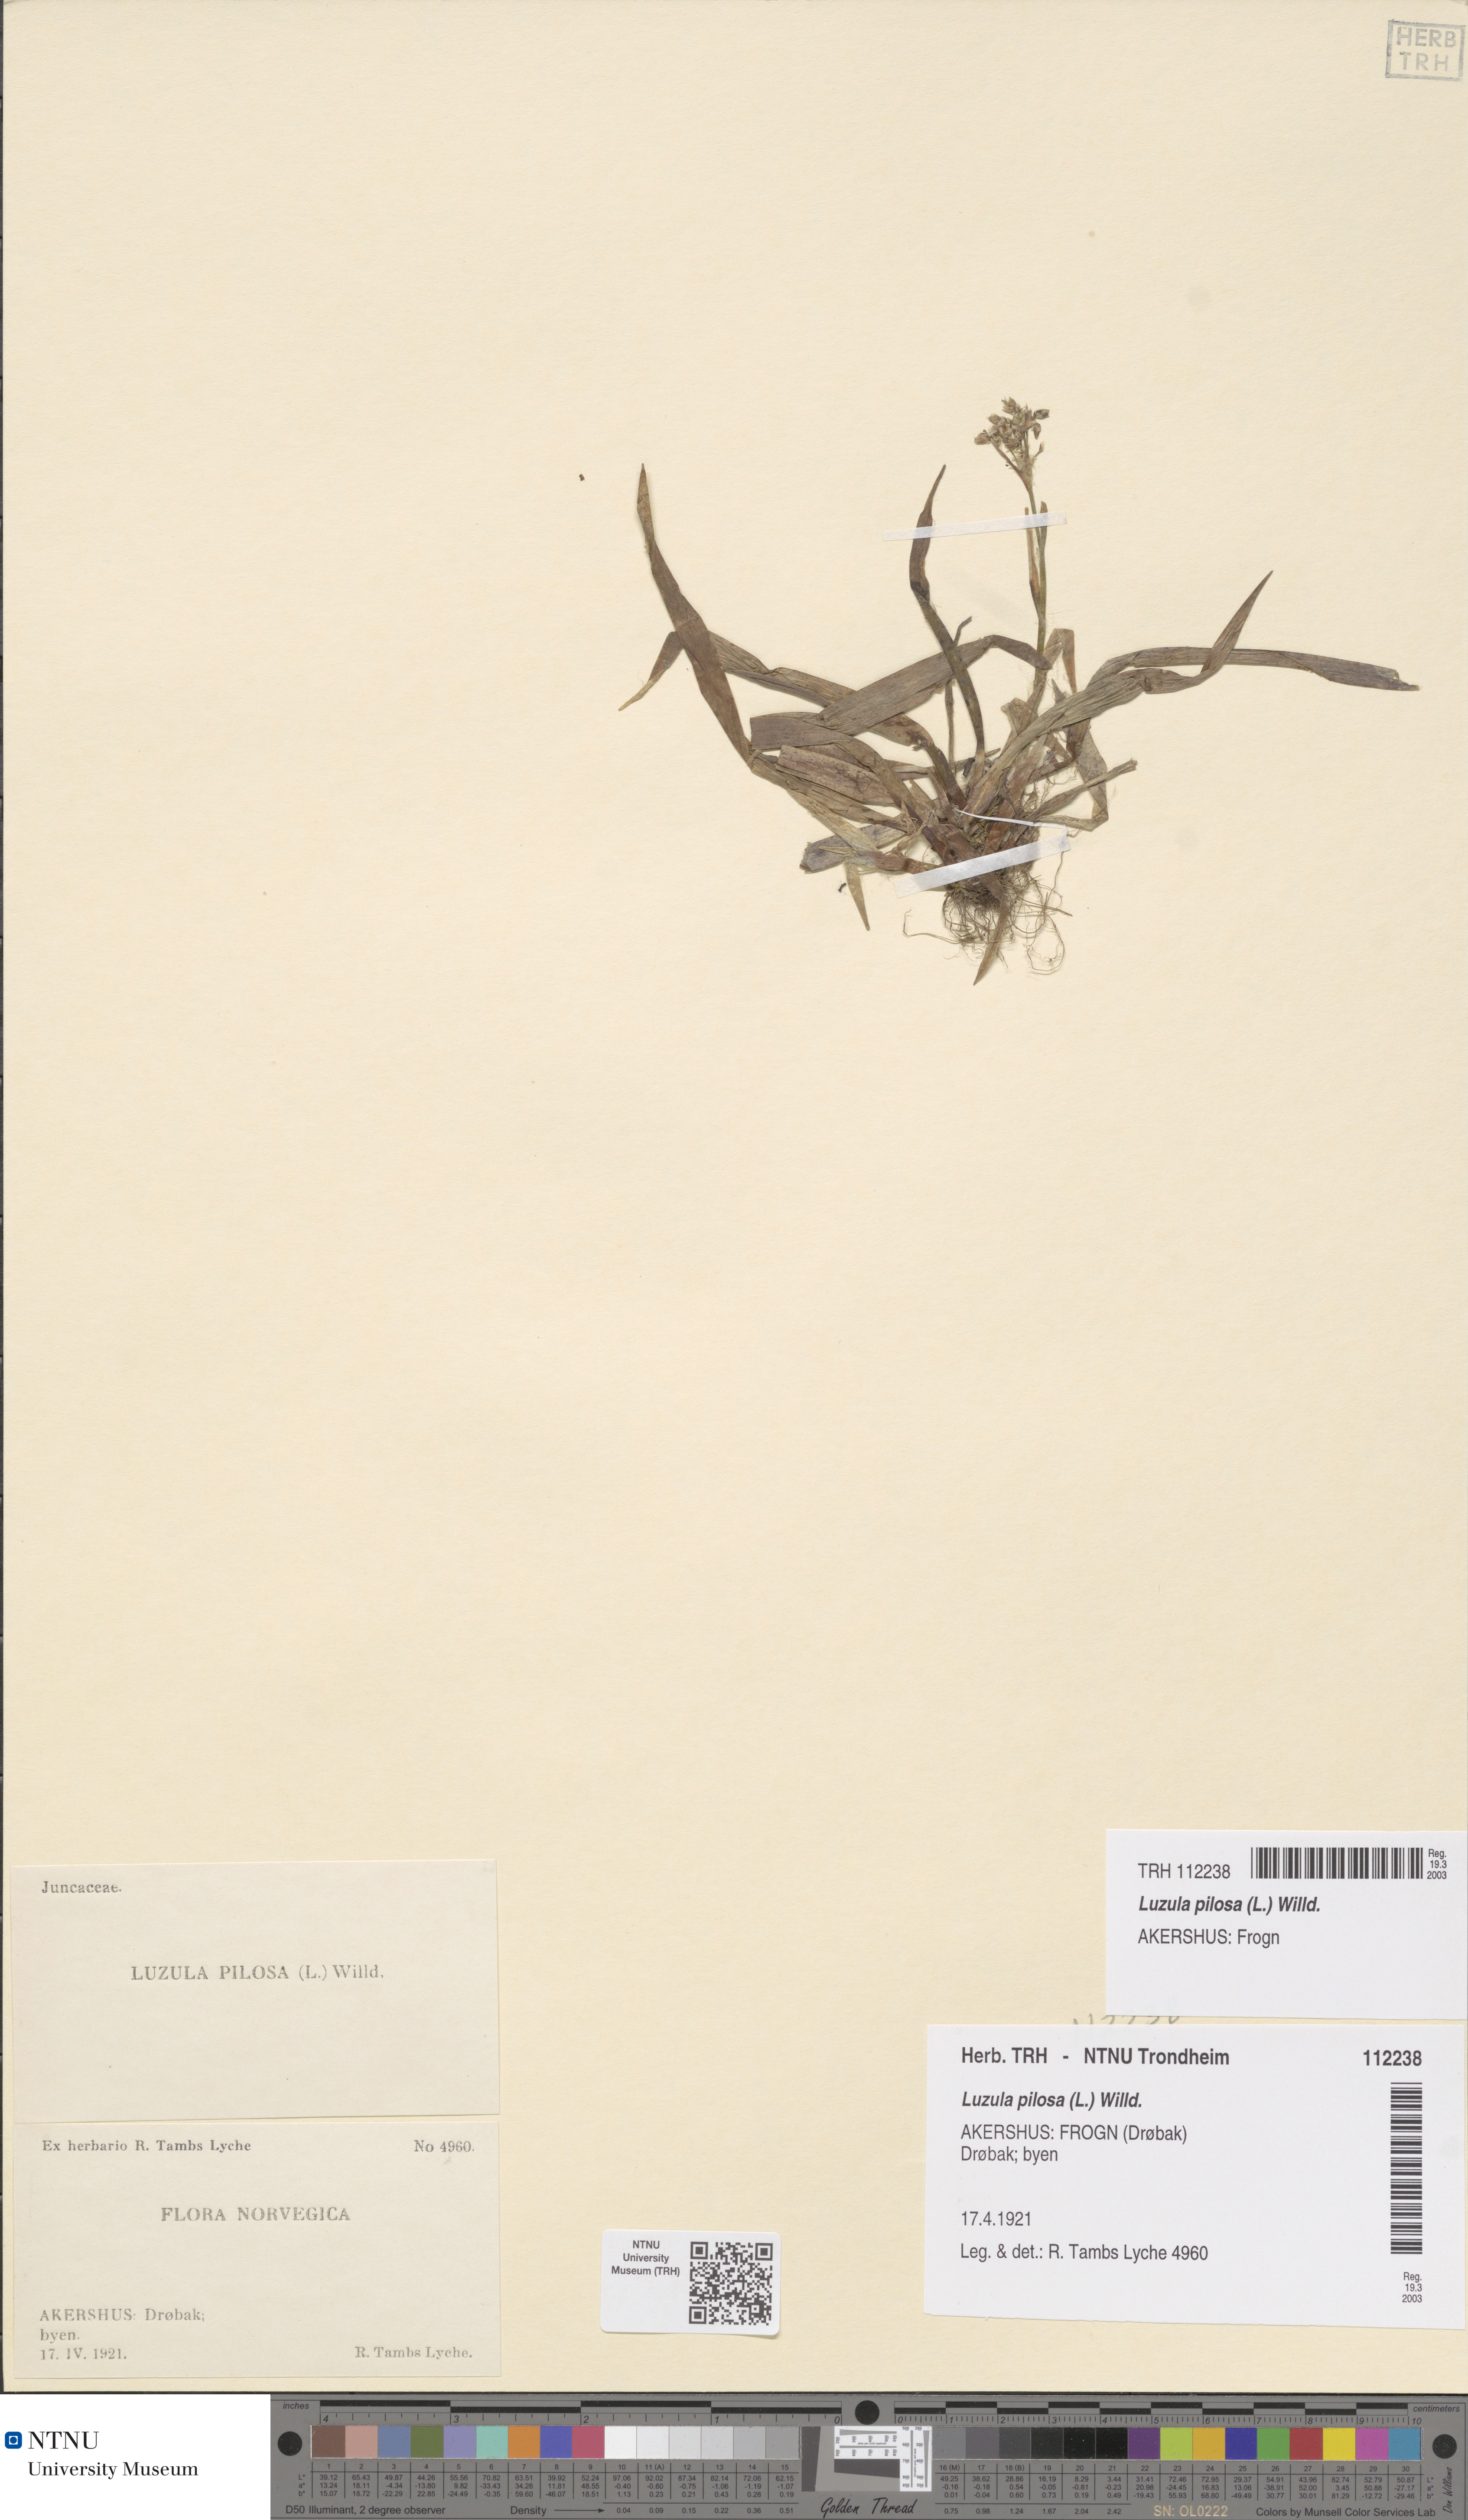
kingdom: Plantae
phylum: Tracheophyta
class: Liliopsida
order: Poales
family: Juncaceae
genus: Luzula
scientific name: Luzula pilosa
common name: Hairy wood-rush
